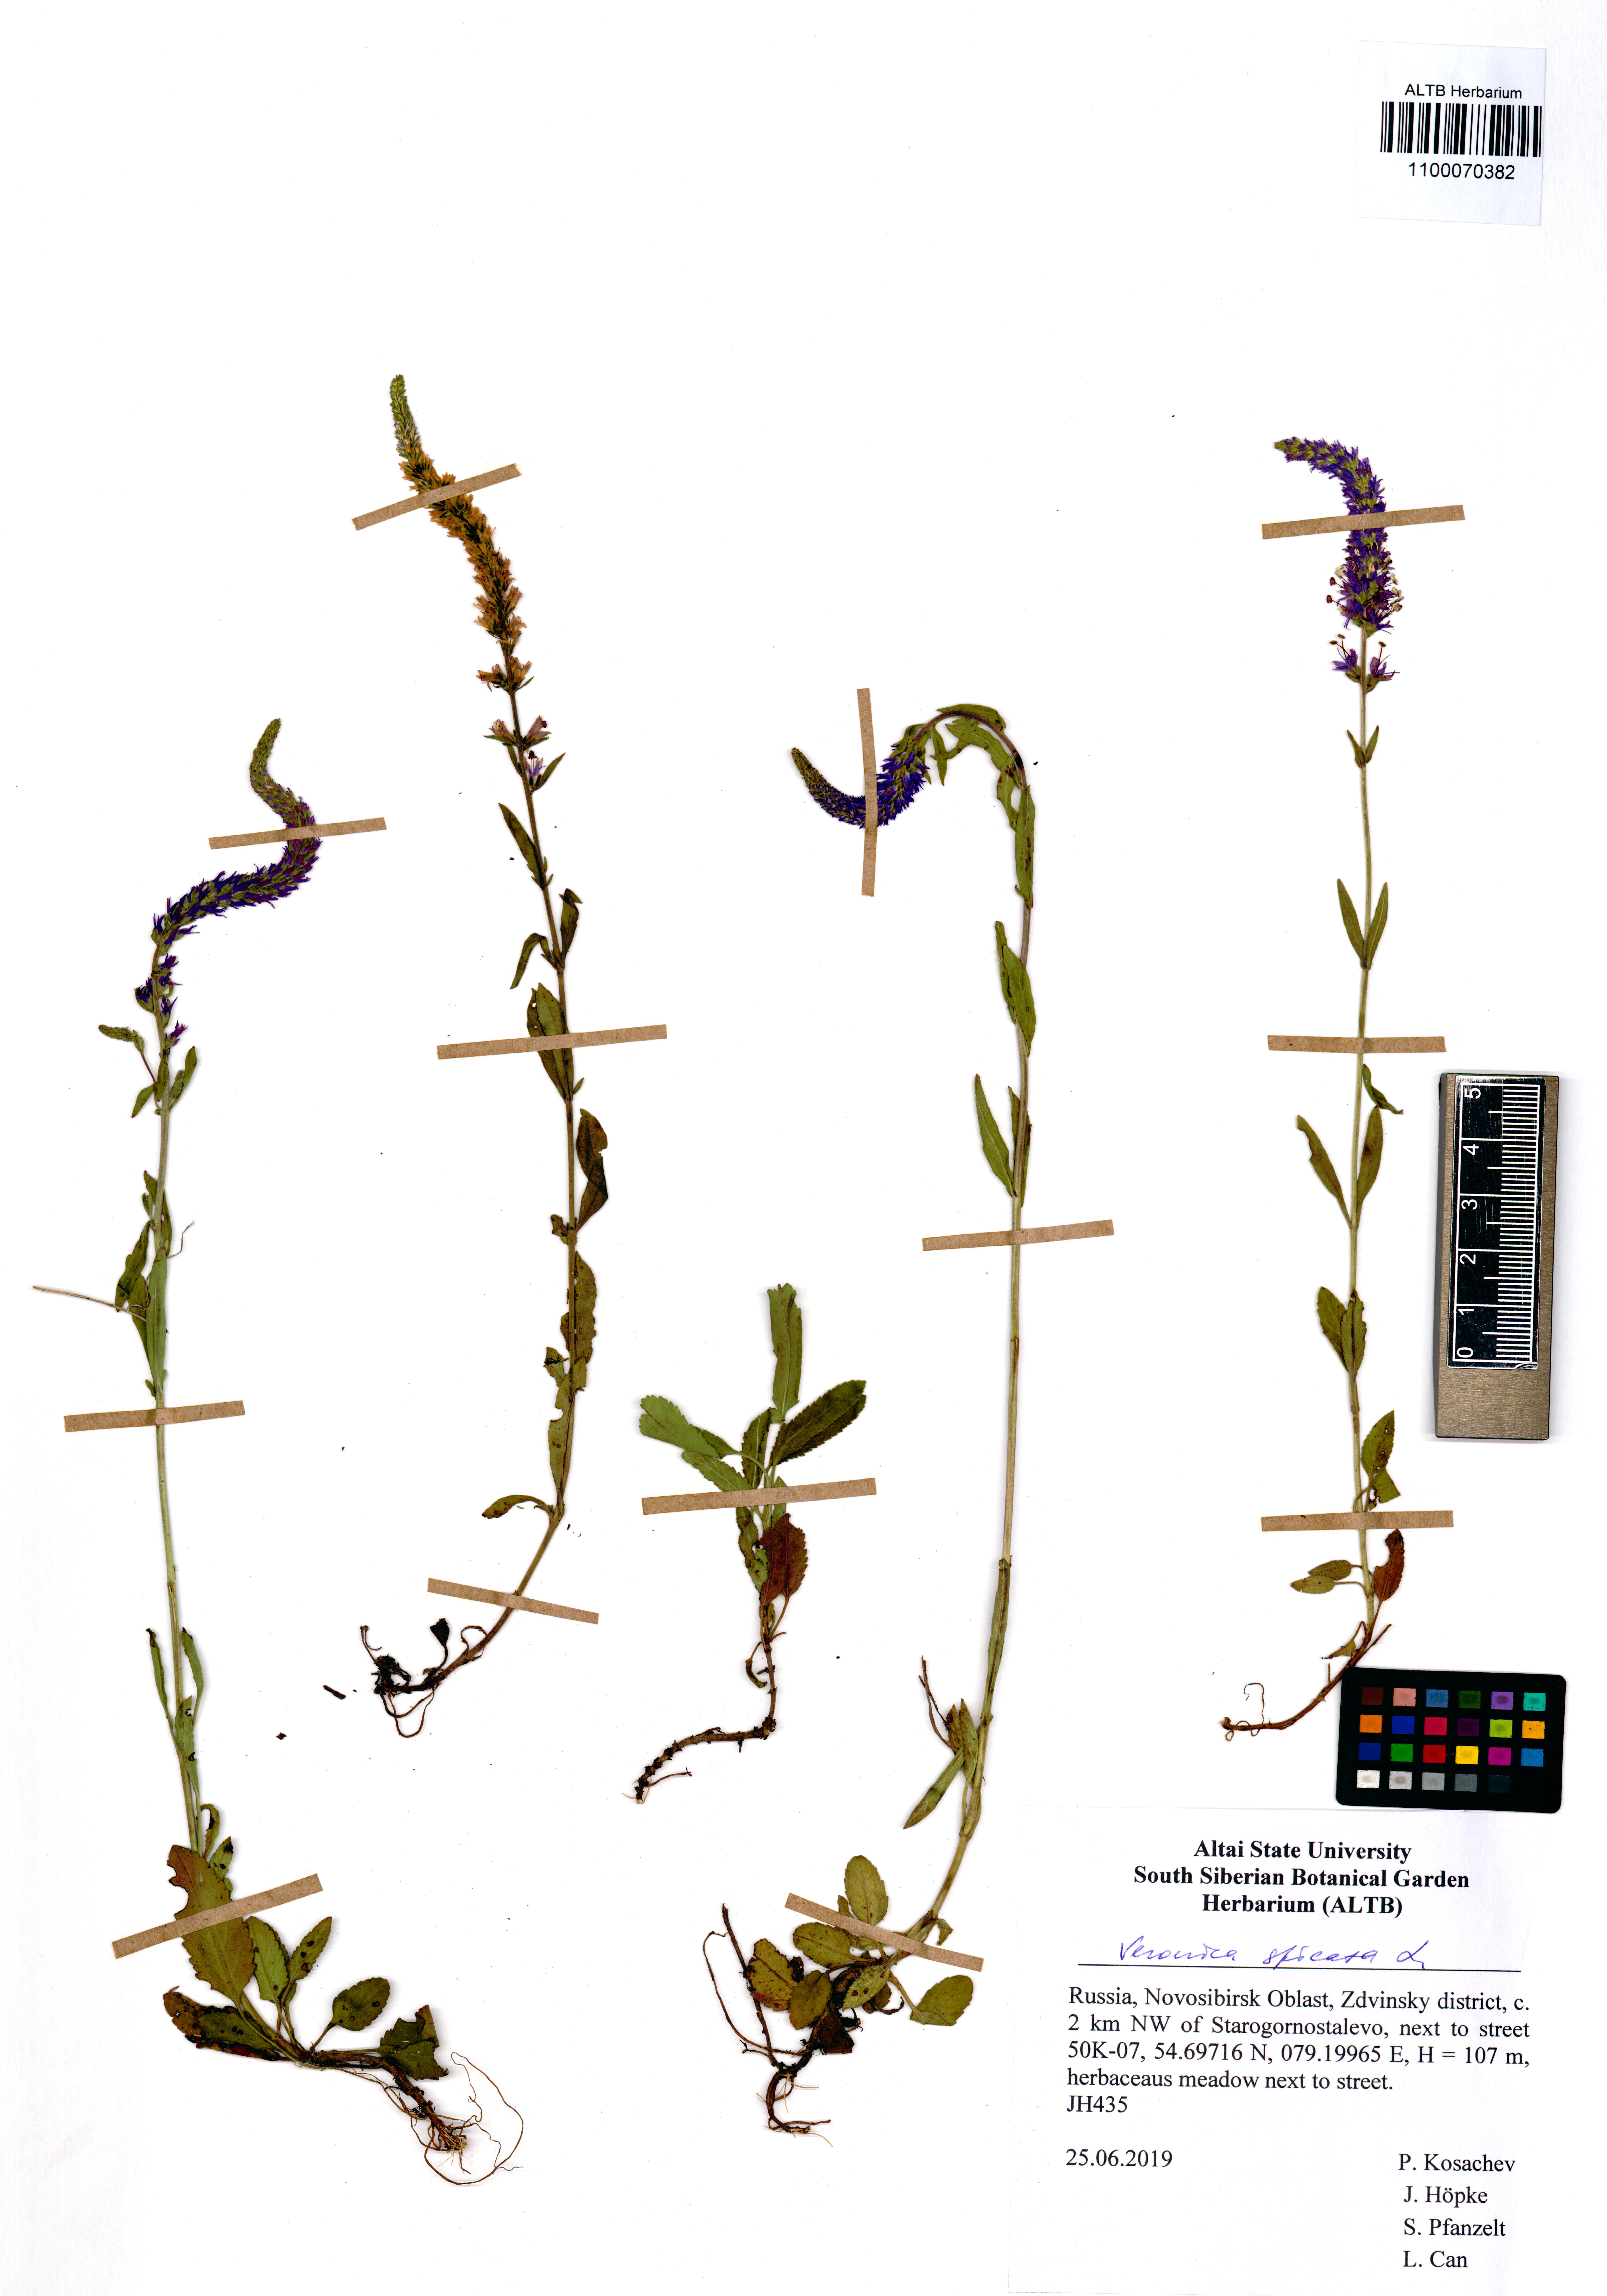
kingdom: Plantae
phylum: Tracheophyta
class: Magnoliopsida
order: Lamiales
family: Plantaginaceae
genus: Veronica
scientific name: Veronica spicata
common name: Spiked speedwell
